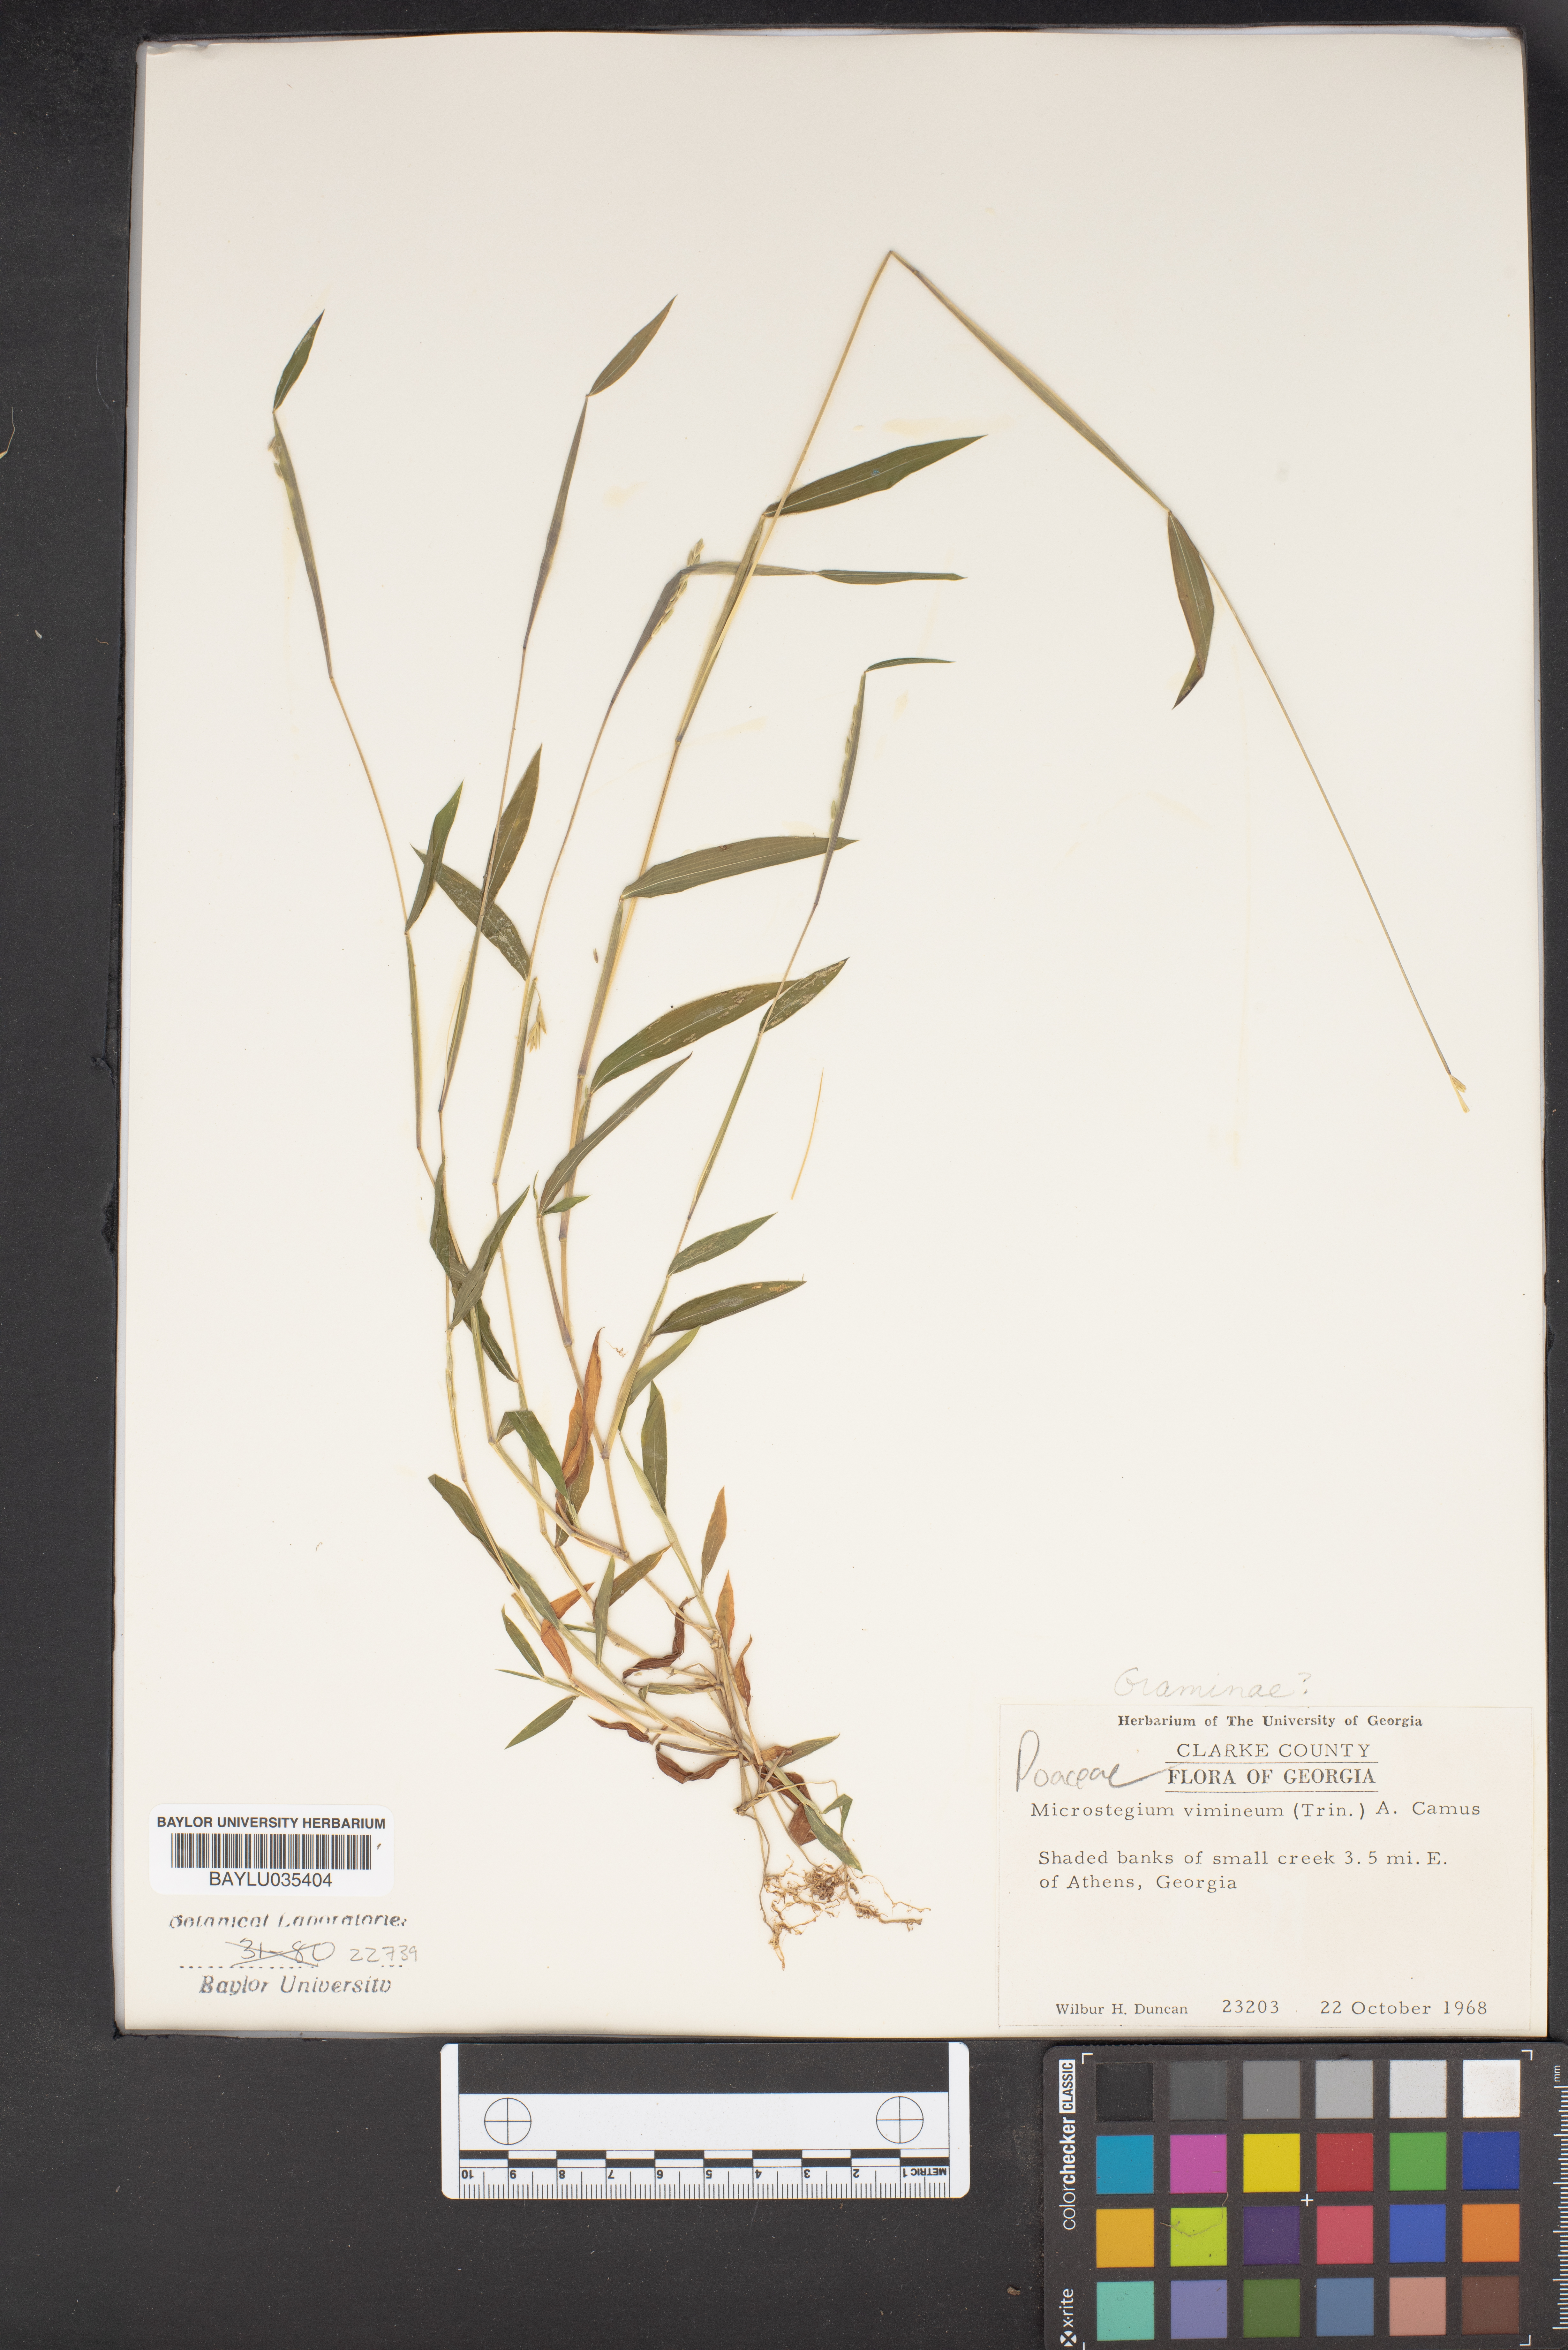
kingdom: Plantae
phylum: Tracheophyta
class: Liliopsida
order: Poales
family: Poaceae
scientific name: Poaceae
